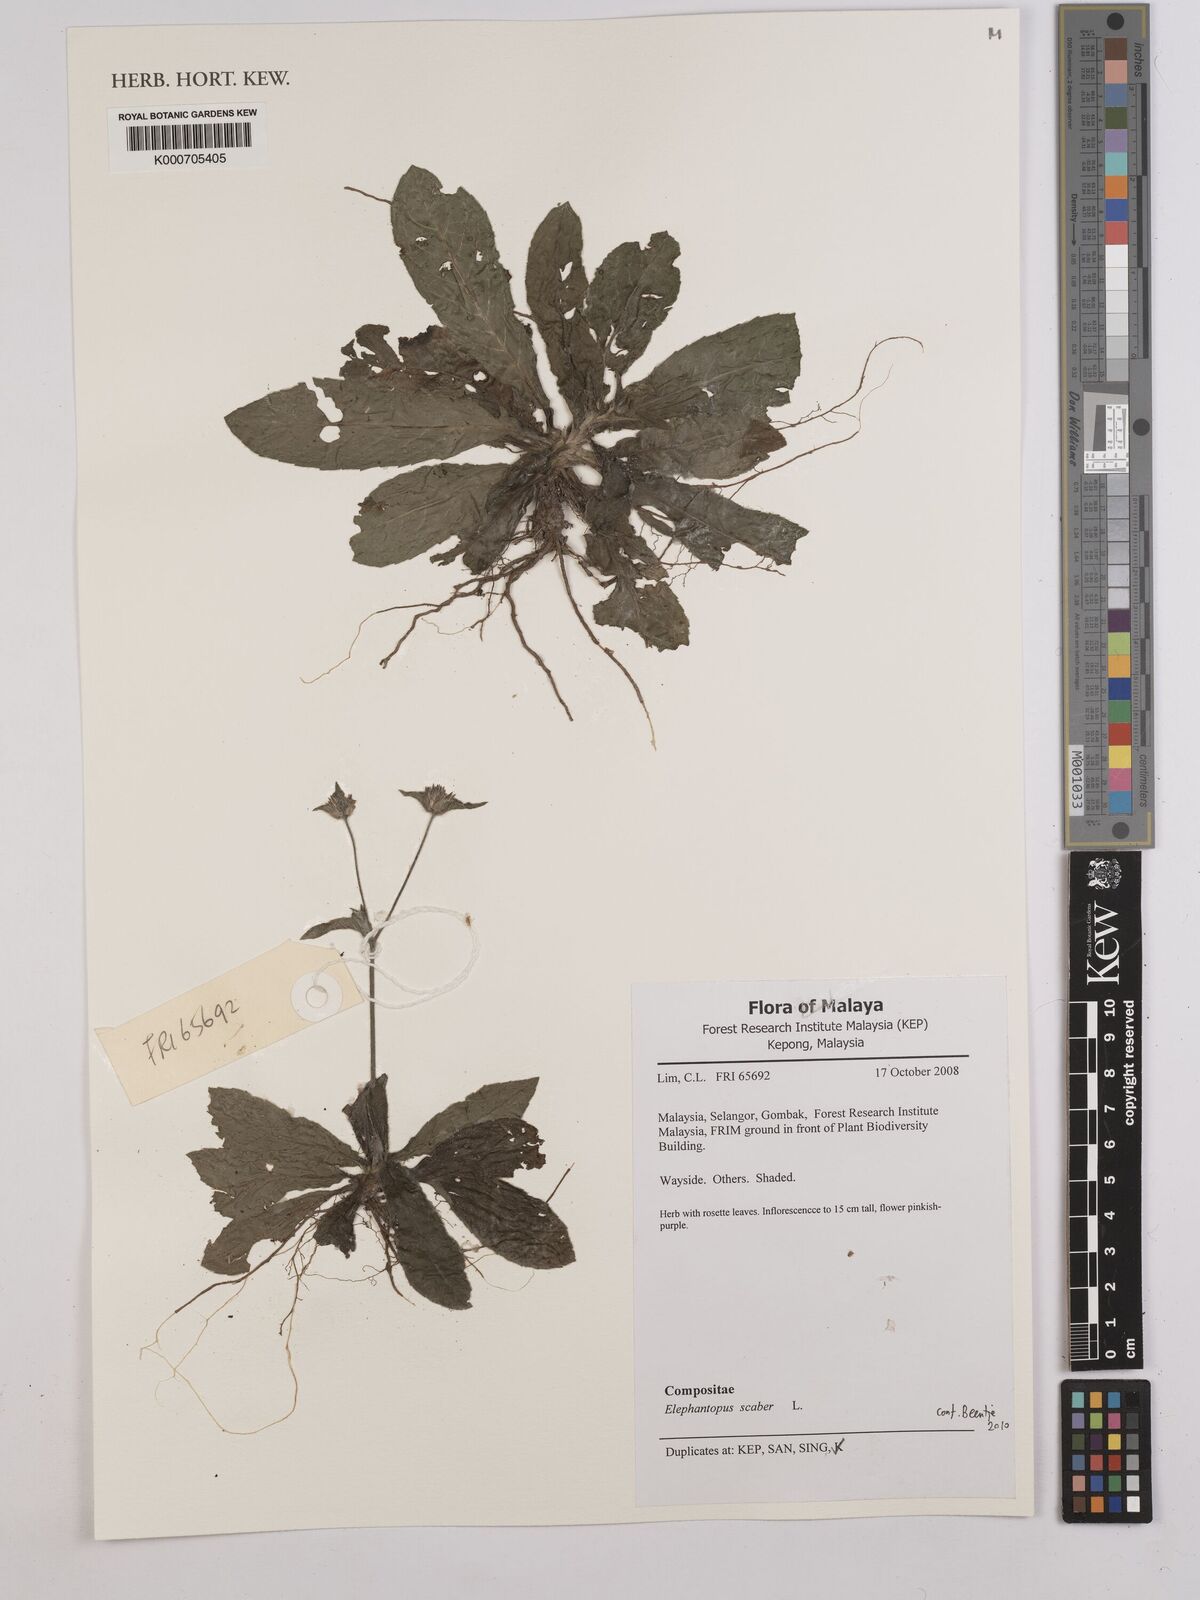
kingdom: Plantae
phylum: Tracheophyta
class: Magnoliopsida
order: Asterales
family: Asteraceae
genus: Elephantopus
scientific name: Elephantopus scaber
